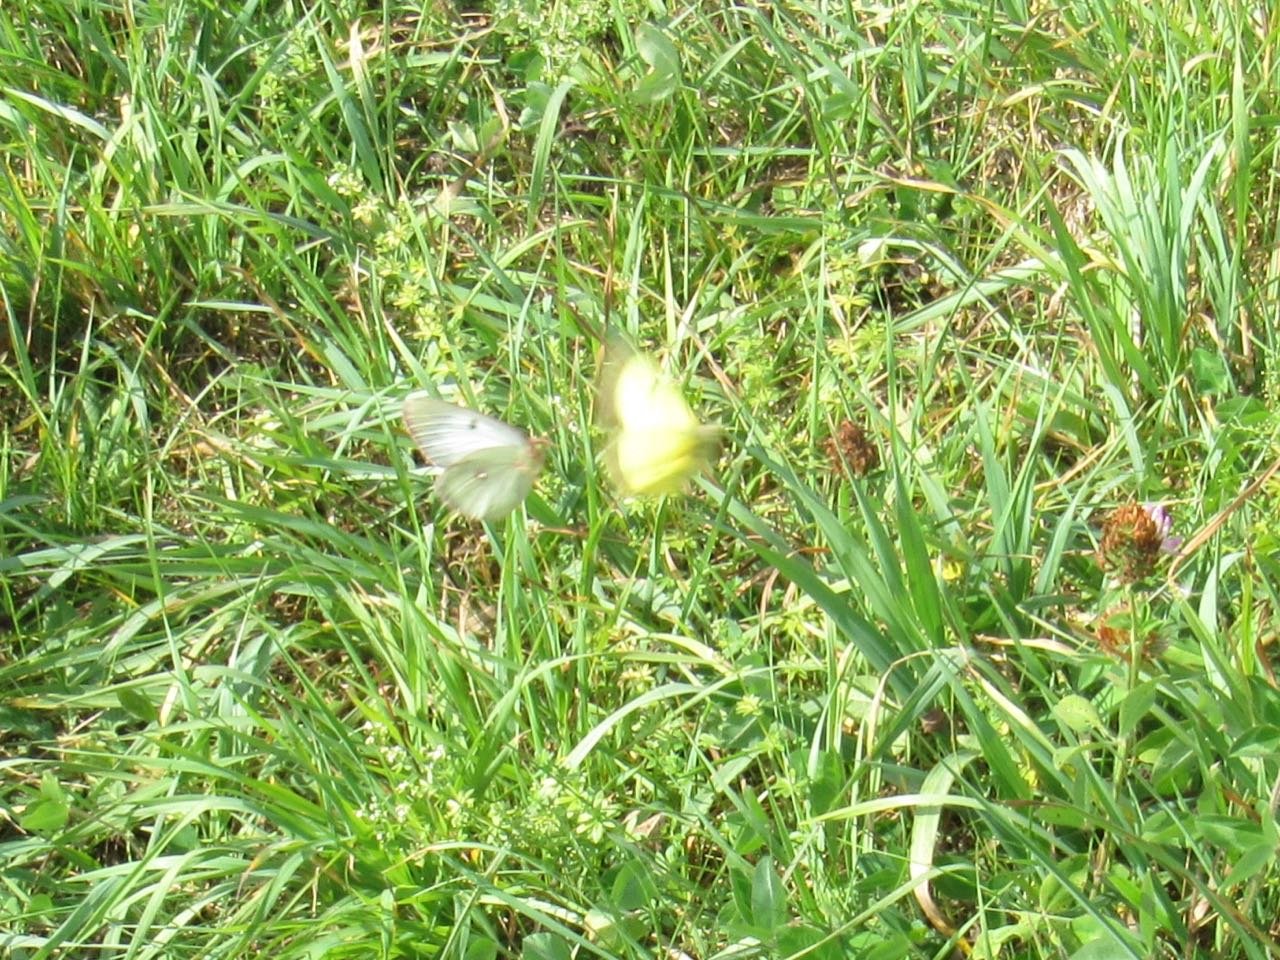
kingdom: Animalia
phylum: Arthropoda
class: Insecta
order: Lepidoptera
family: Pieridae
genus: Colias
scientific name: Colias philodice
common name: Clouded Sulphur
